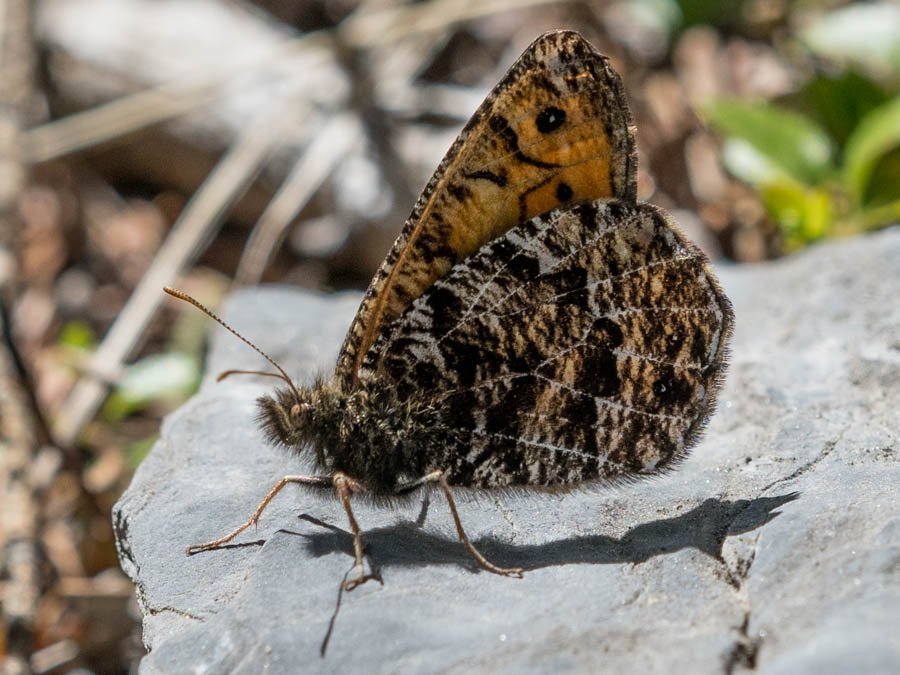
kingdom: Animalia
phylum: Arthropoda
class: Insecta
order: Lepidoptera
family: Nymphalidae
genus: Oeneis
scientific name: Oeneis chryxus
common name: Chryxus Arctic
